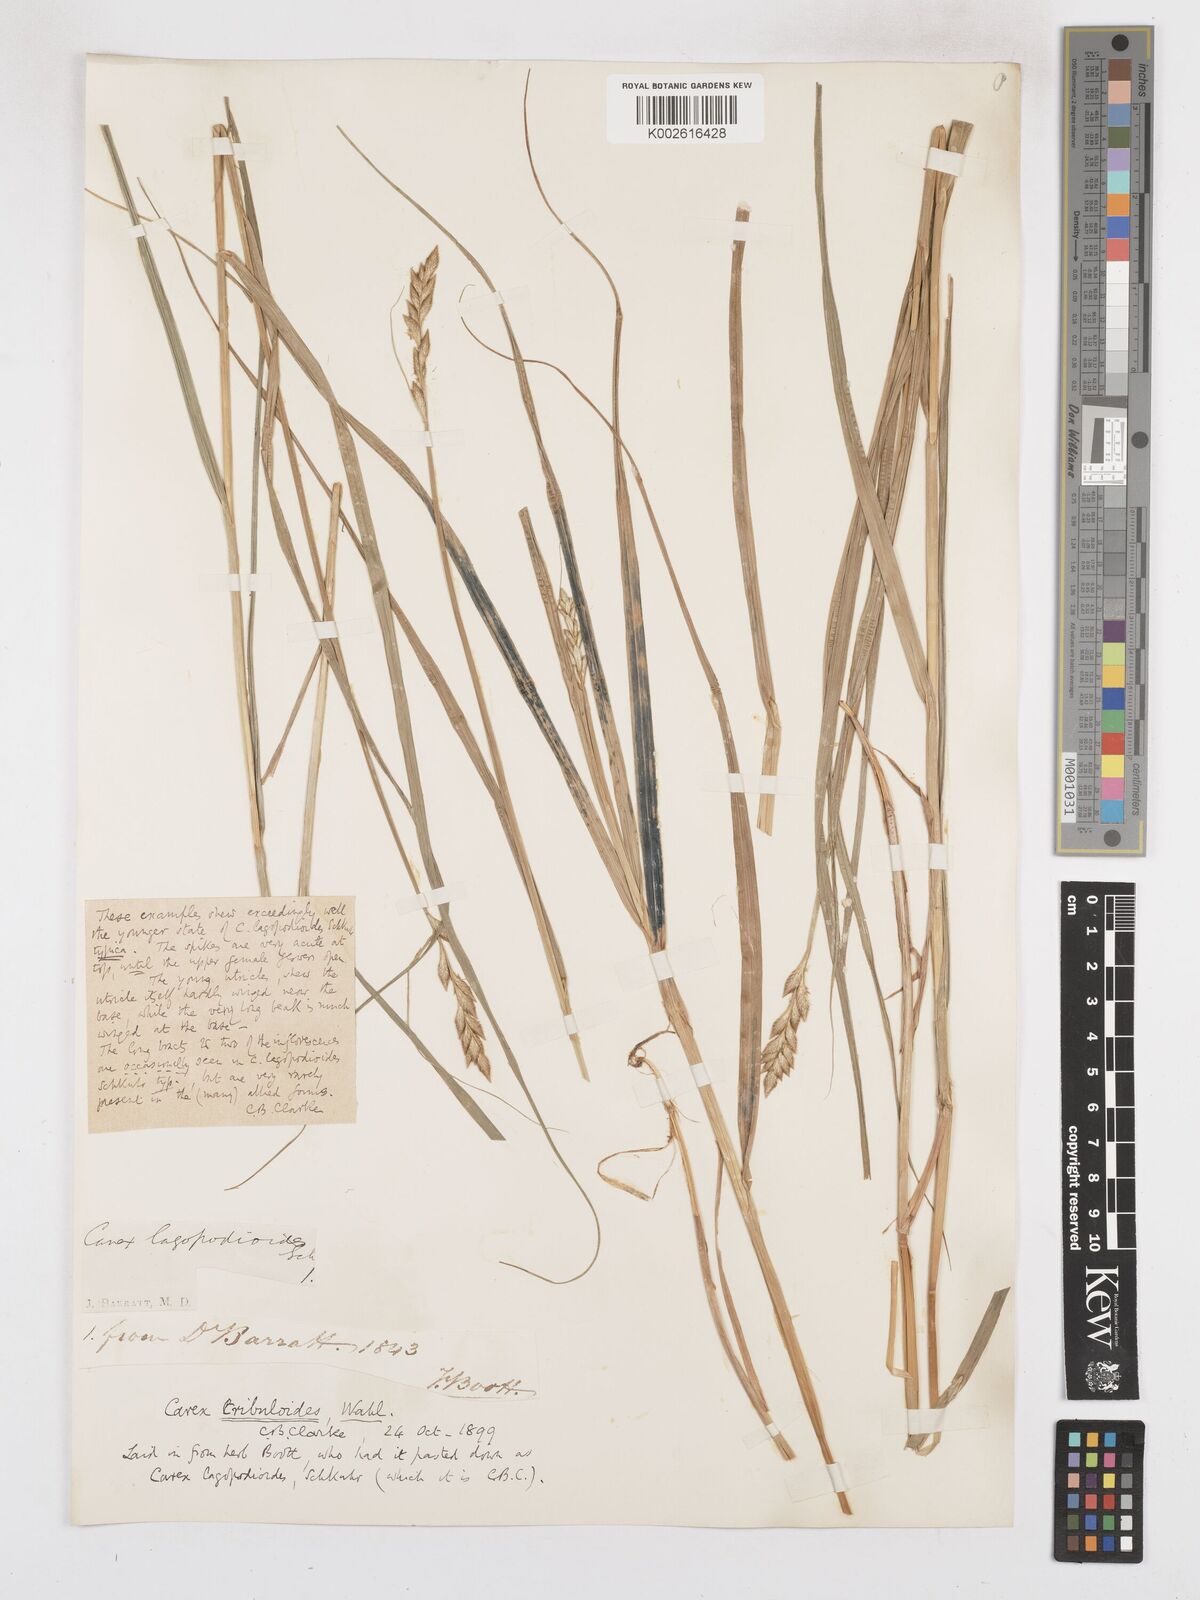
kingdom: Plantae
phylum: Tracheophyta
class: Liliopsida
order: Poales
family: Cyperaceae
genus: Carex
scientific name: Carex tribuloides
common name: Blunt broom sedge
